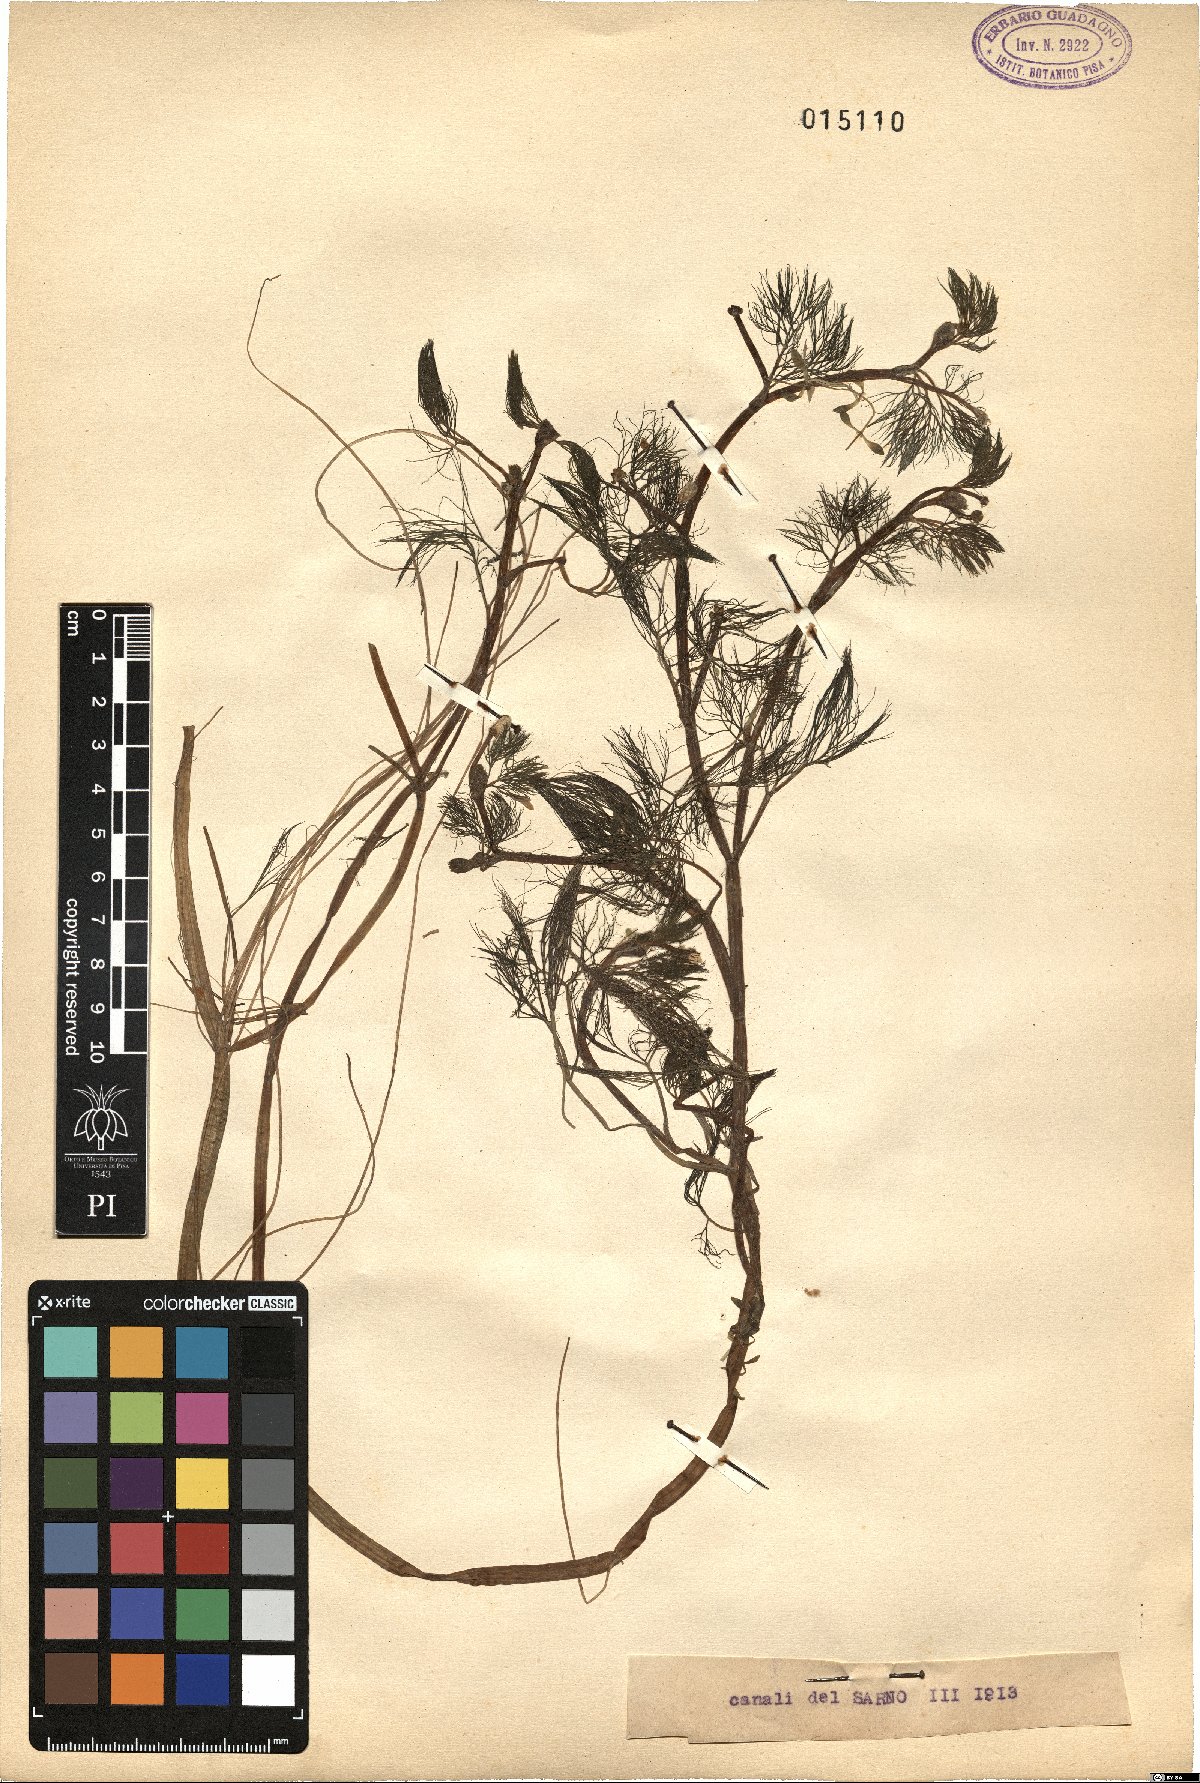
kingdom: Plantae
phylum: Tracheophyta
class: Magnoliopsida
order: Ranunculales
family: Ranunculaceae
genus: Ranunculus
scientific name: Ranunculus
